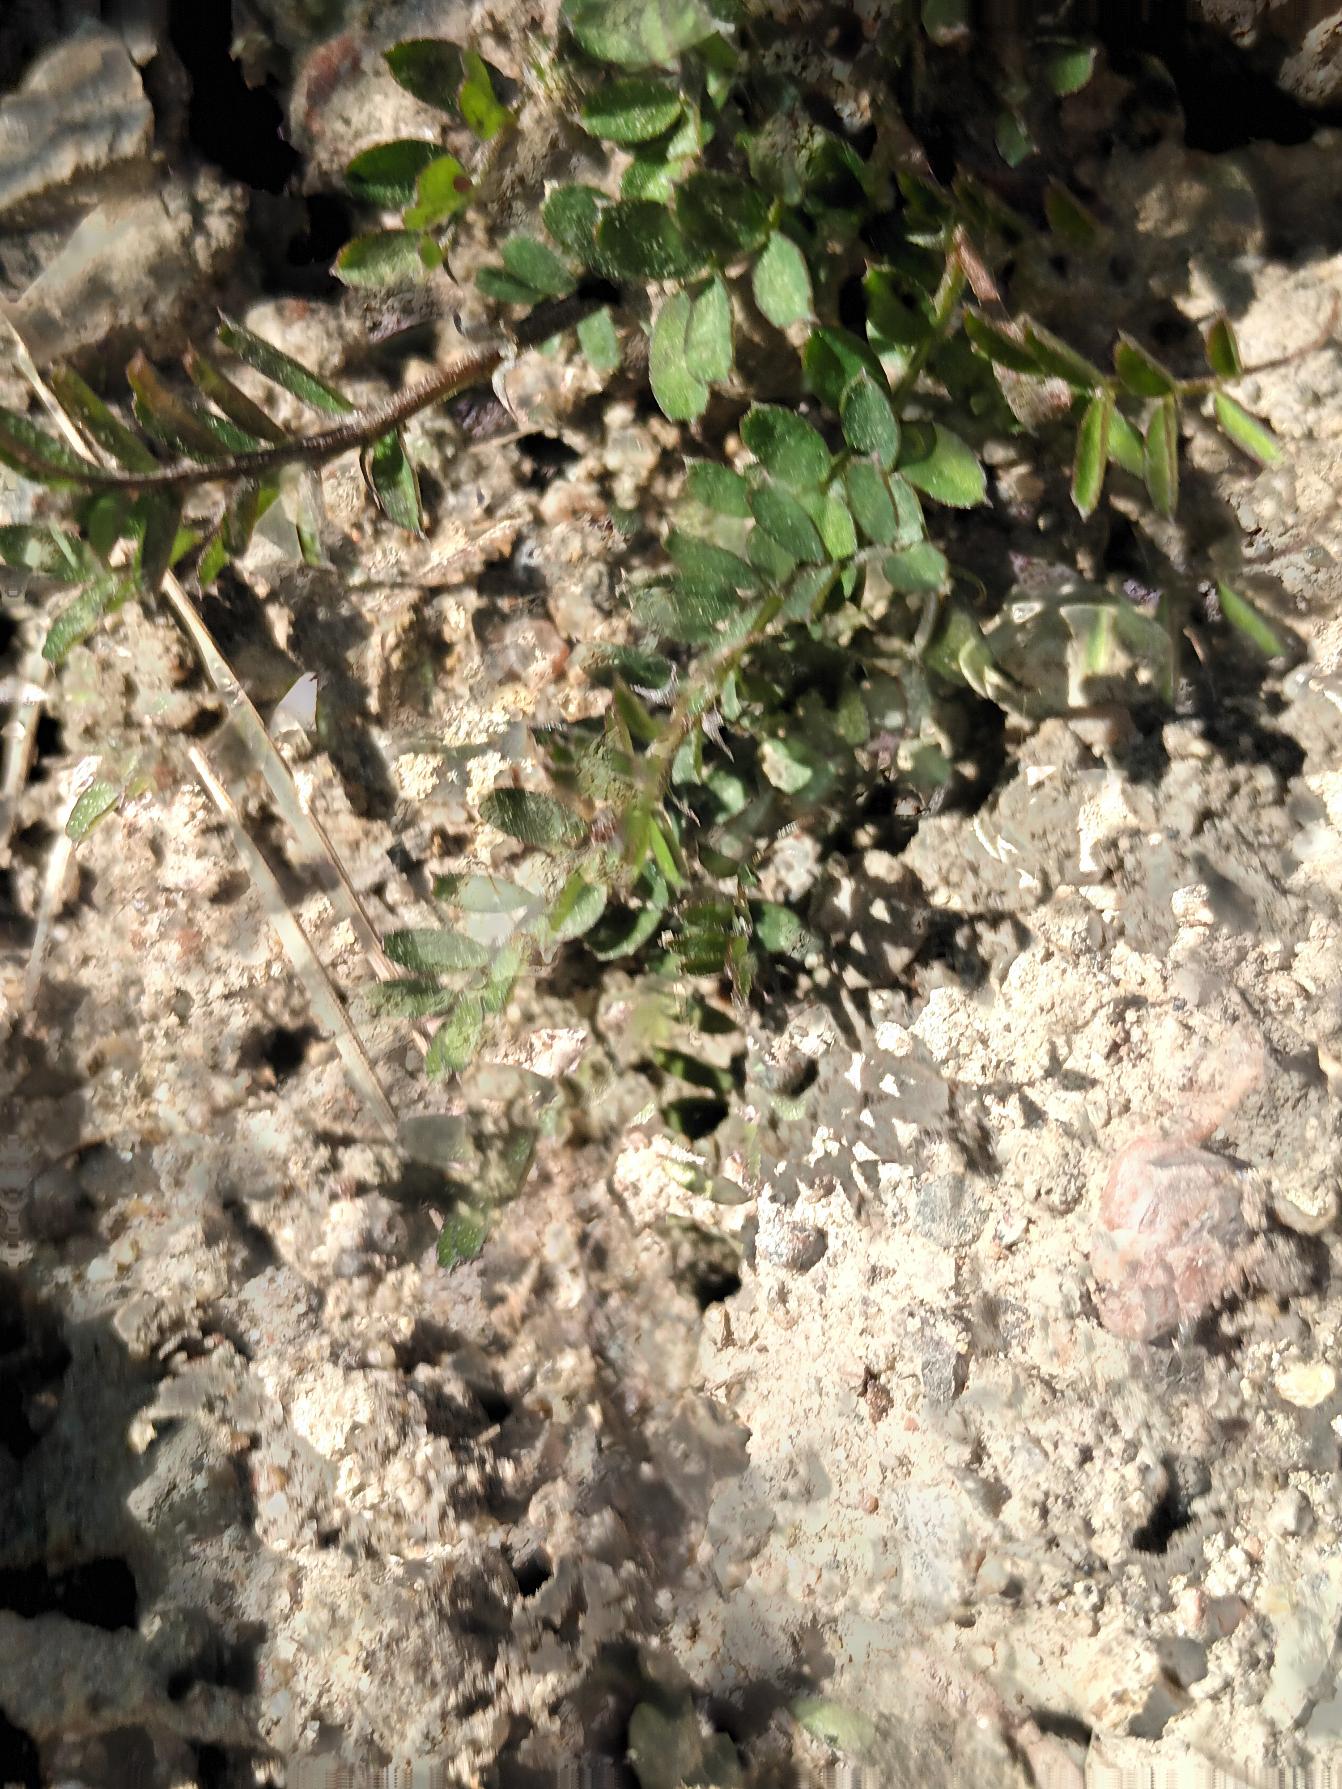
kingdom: Plantae
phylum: Tracheophyta
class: Magnoliopsida
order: Fabales
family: Fabaceae
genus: Vicia
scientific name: Vicia hirsuta
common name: Tofrøet vikke
